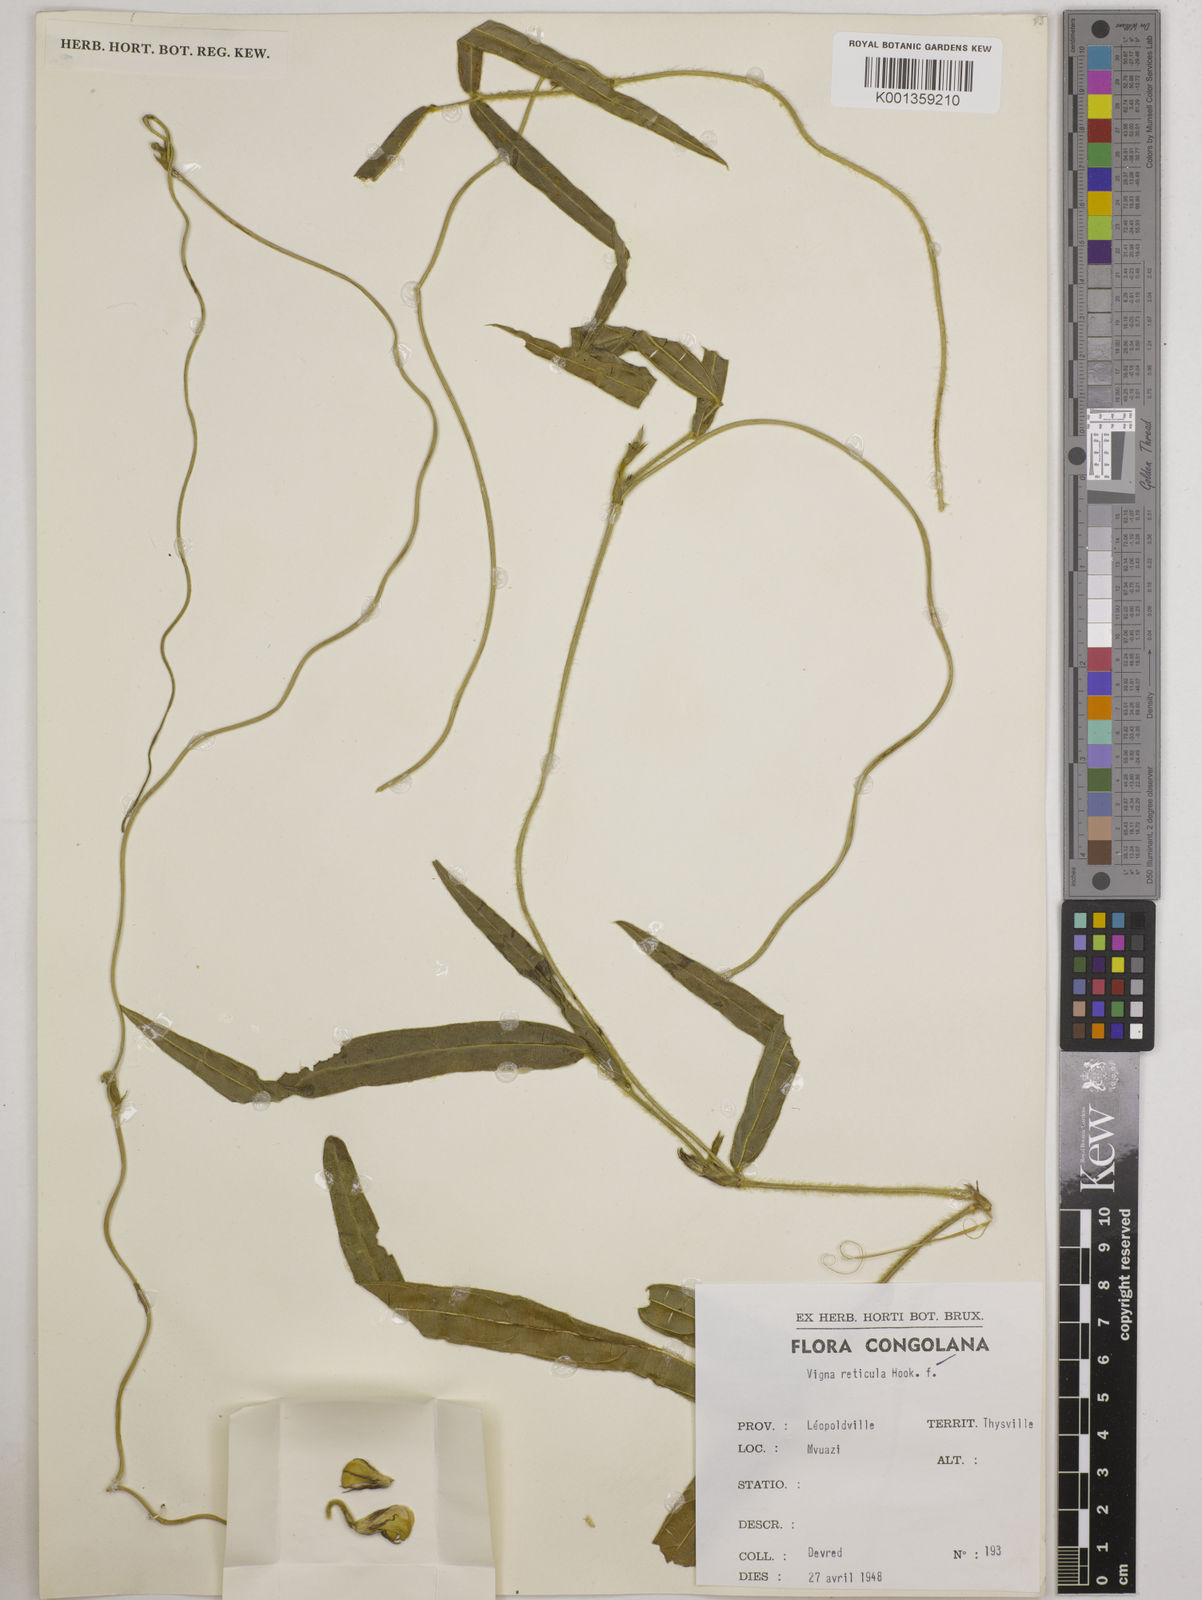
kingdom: Plantae
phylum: Tracheophyta
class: Magnoliopsida
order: Fabales
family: Fabaceae
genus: Vigna
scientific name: Vigna reticulata
